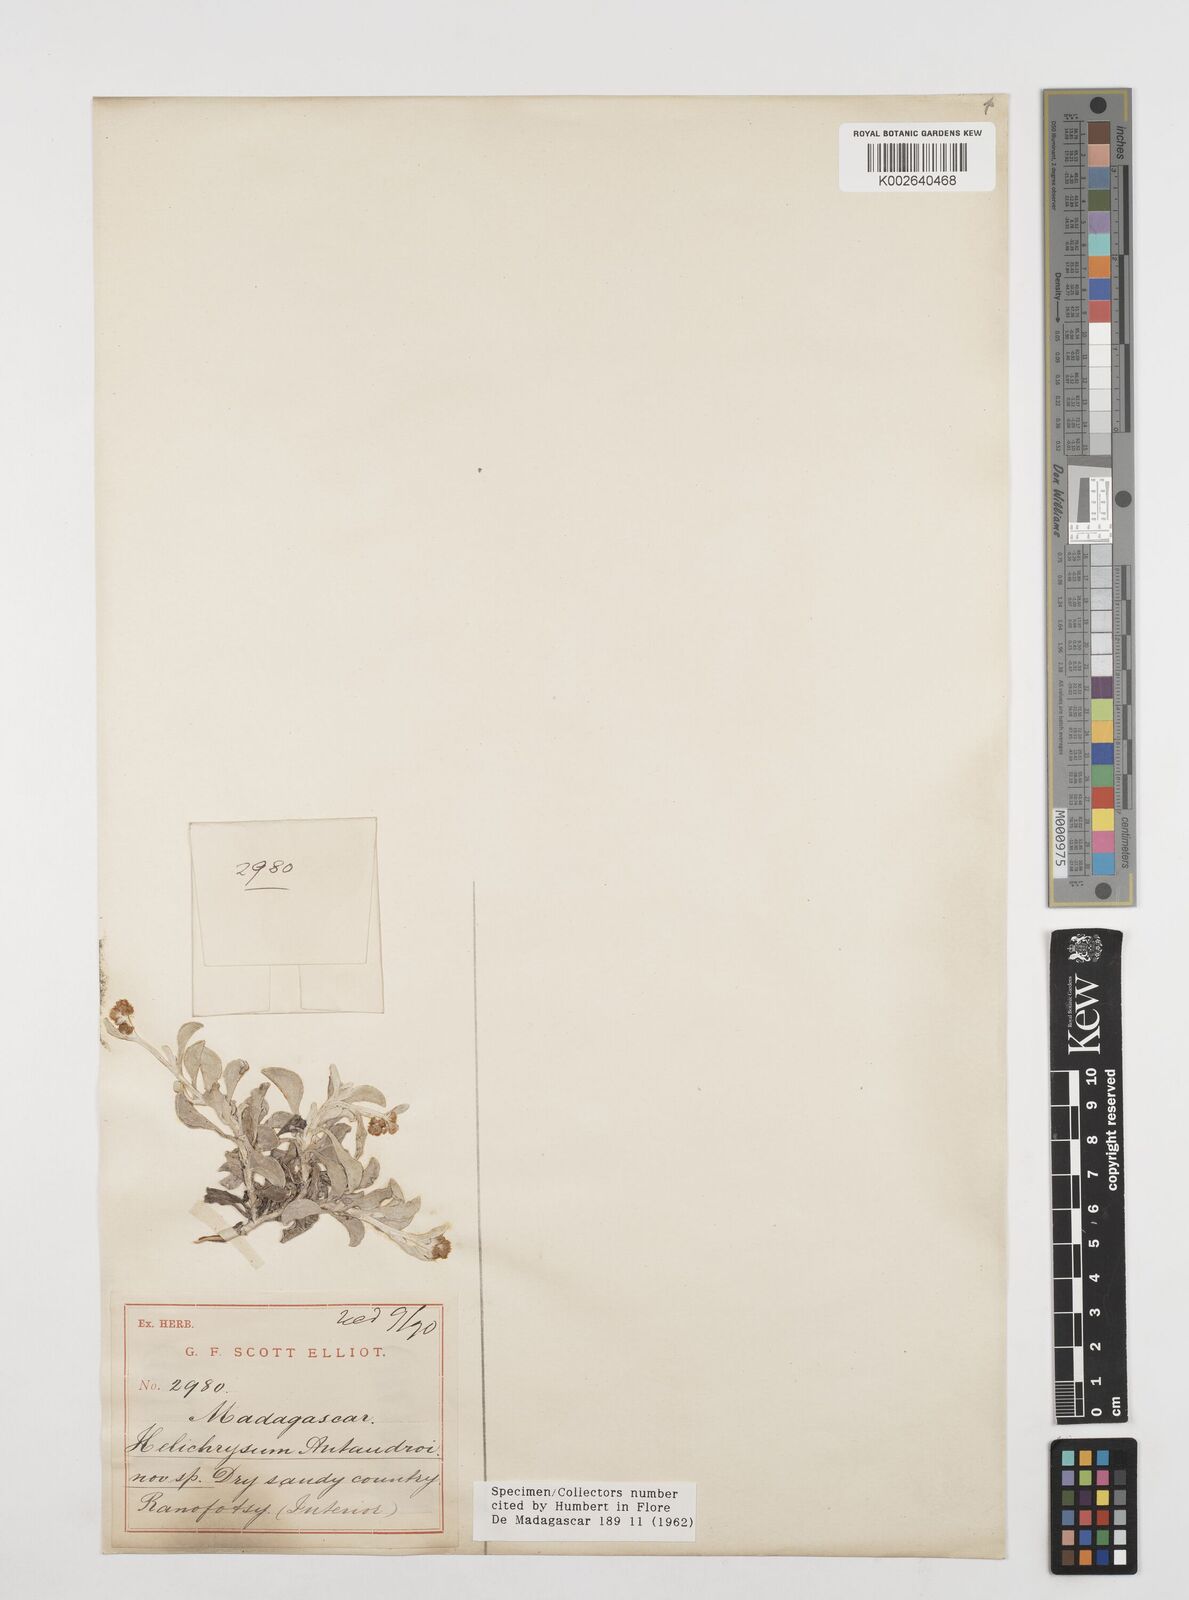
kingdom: Plantae
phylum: Tracheophyta
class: Magnoliopsida
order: Asterales
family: Asteraceae
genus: Helichrysum
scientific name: Helichrysum antandroi
